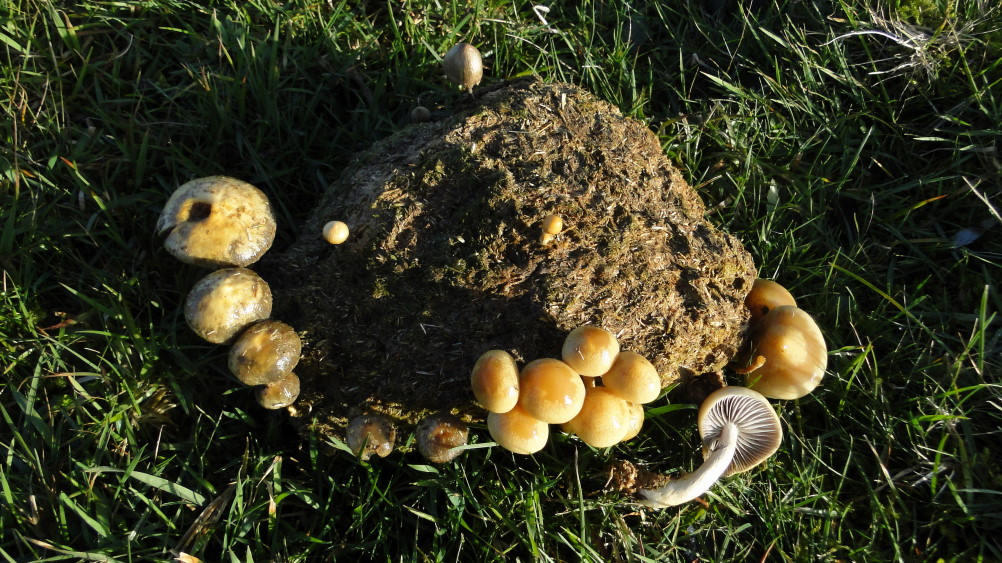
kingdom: Fungi
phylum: Basidiomycota
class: Agaricomycetes
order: Agaricales
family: Strophariaceae
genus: Protostropharia
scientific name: Protostropharia semiglobata
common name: halvkugleformet bredblad
